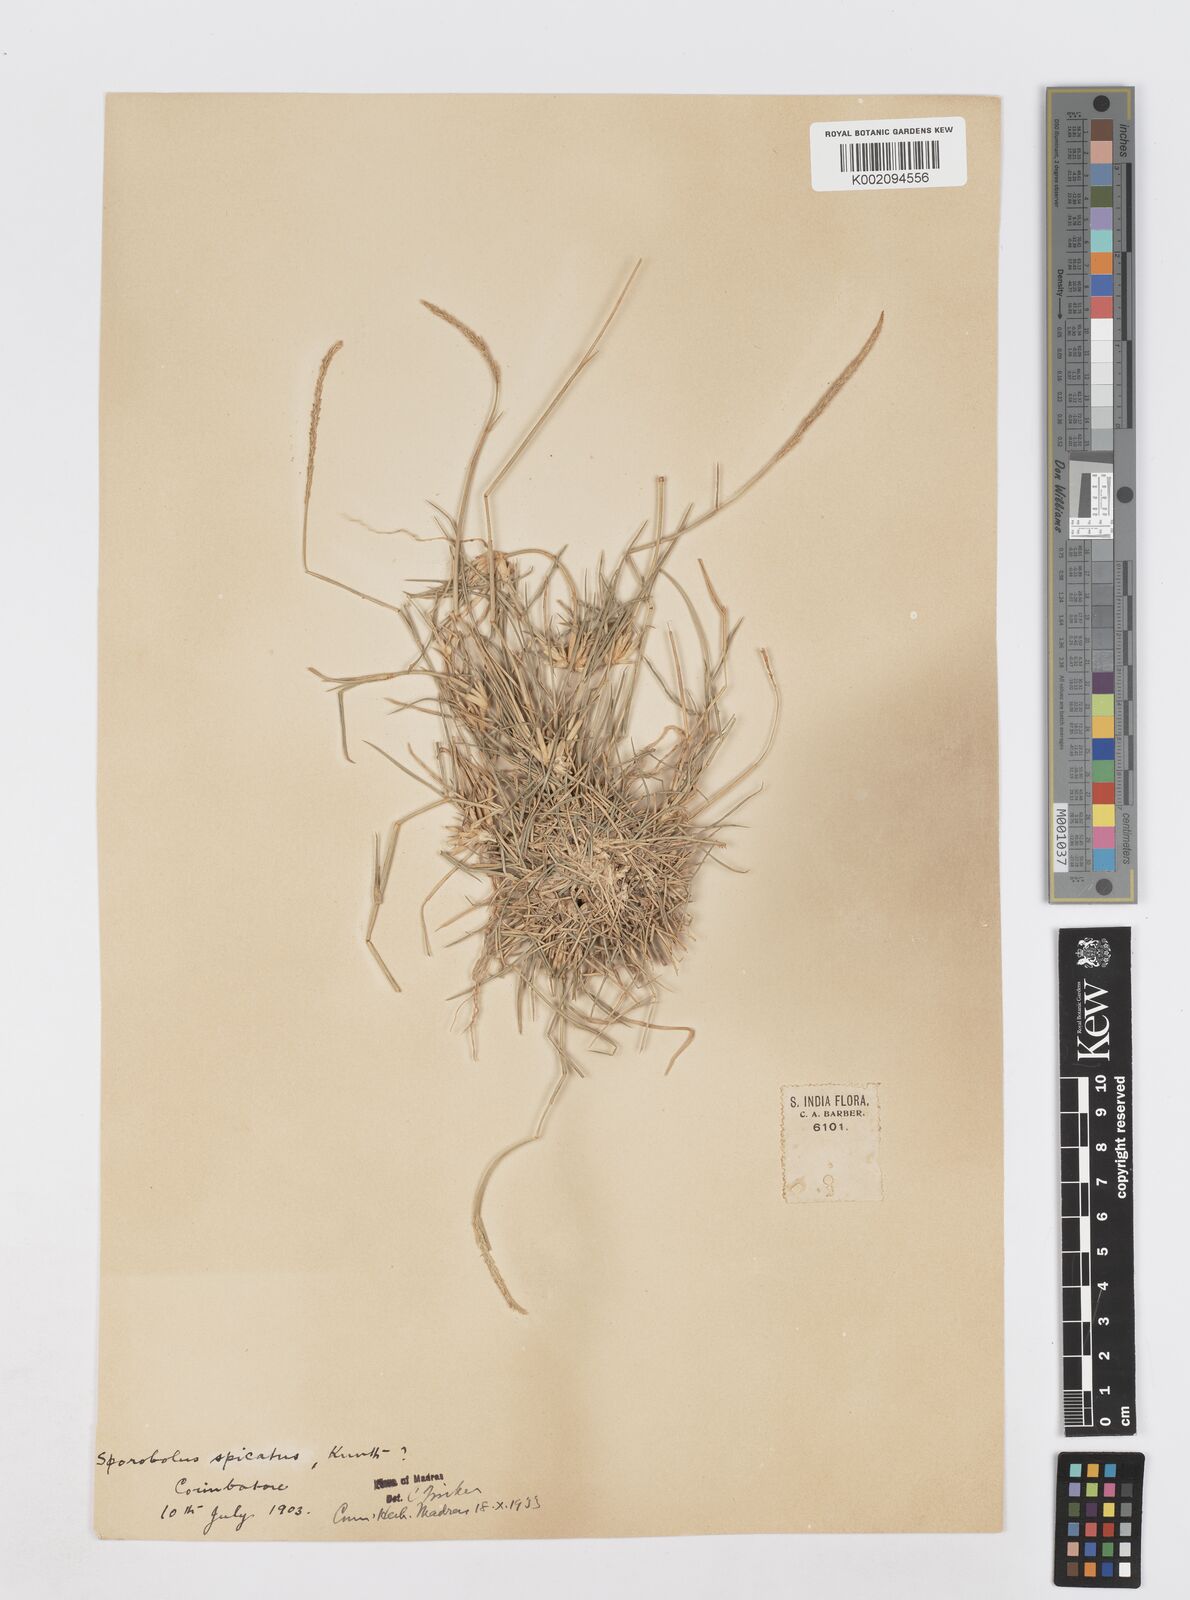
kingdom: Plantae
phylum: Tracheophyta
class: Liliopsida
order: Poales
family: Poaceae
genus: Sporobolus
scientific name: Sporobolus spicatus
